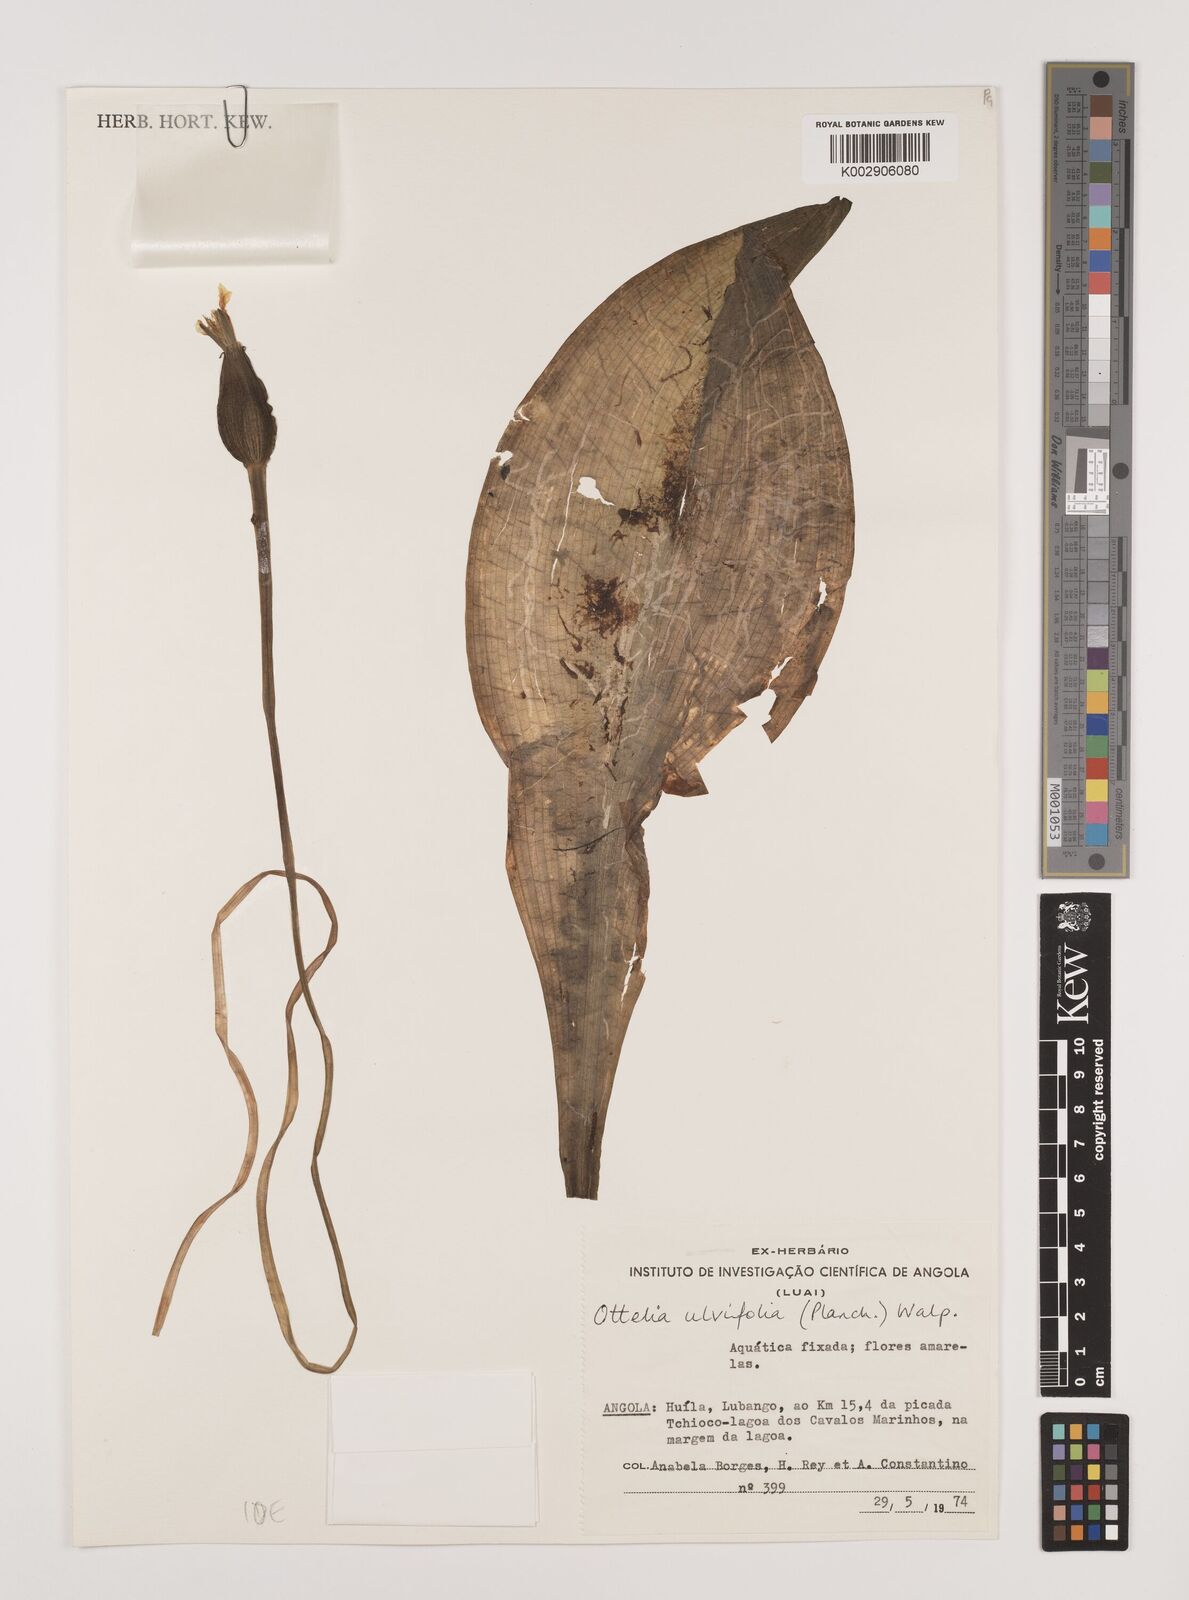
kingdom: Plantae
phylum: Tracheophyta
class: Liliopsida
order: Alismatales
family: Hydrocharitaceae
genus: Ottelia
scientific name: Ottelia ulvifolia
